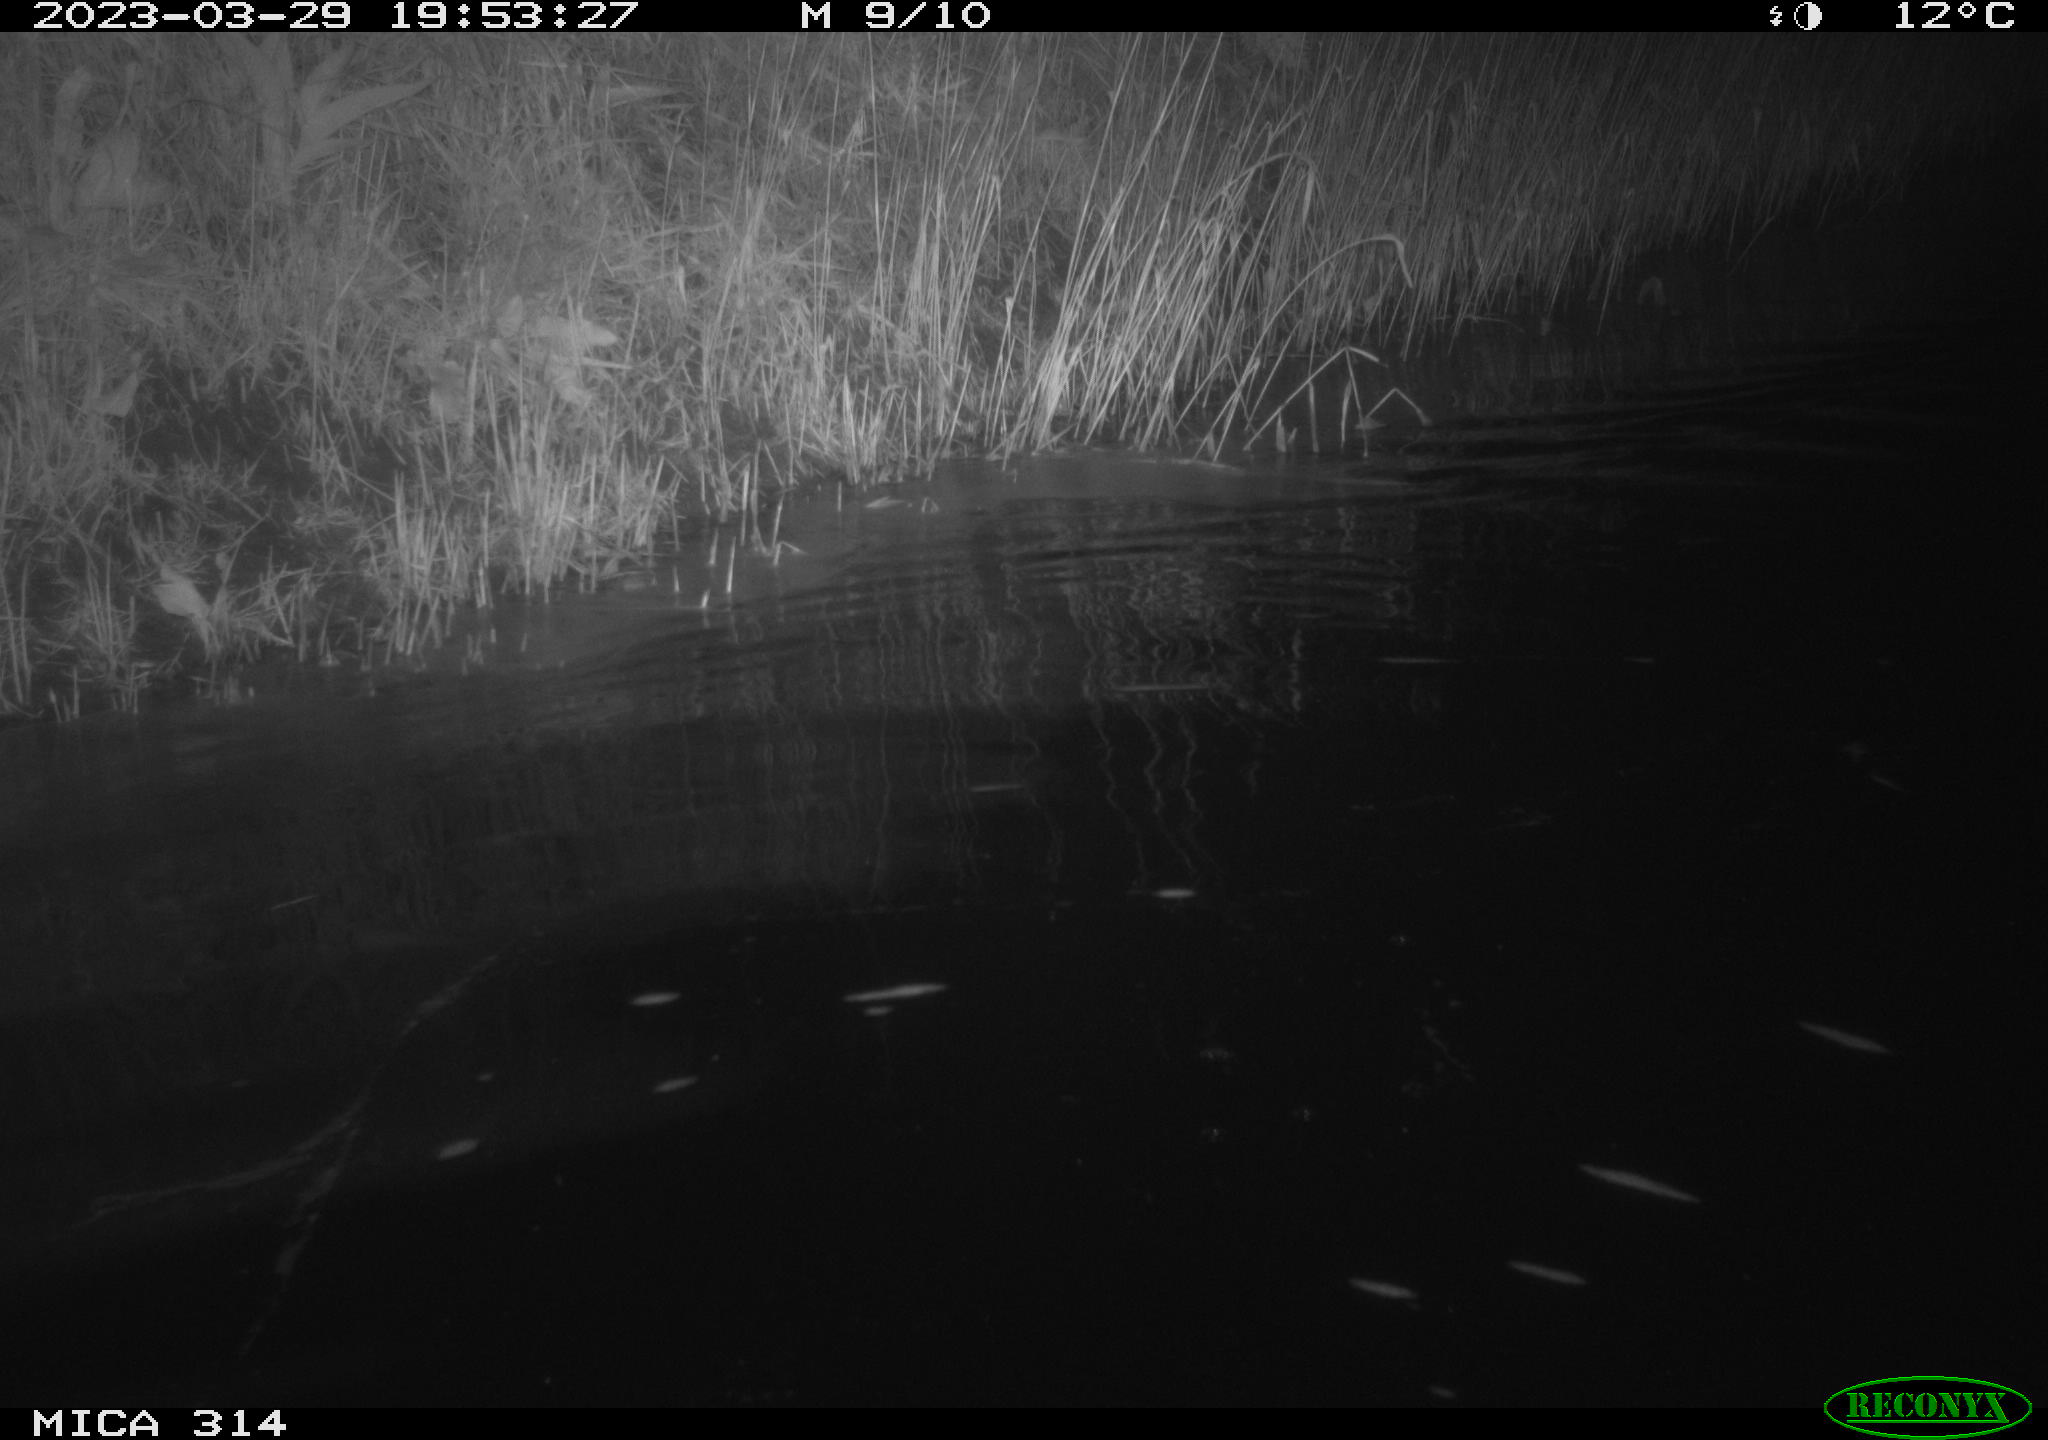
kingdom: Animalia
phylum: Chordata
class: Aves
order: Anseriformes
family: Anatidae
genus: Anas
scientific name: Anas
